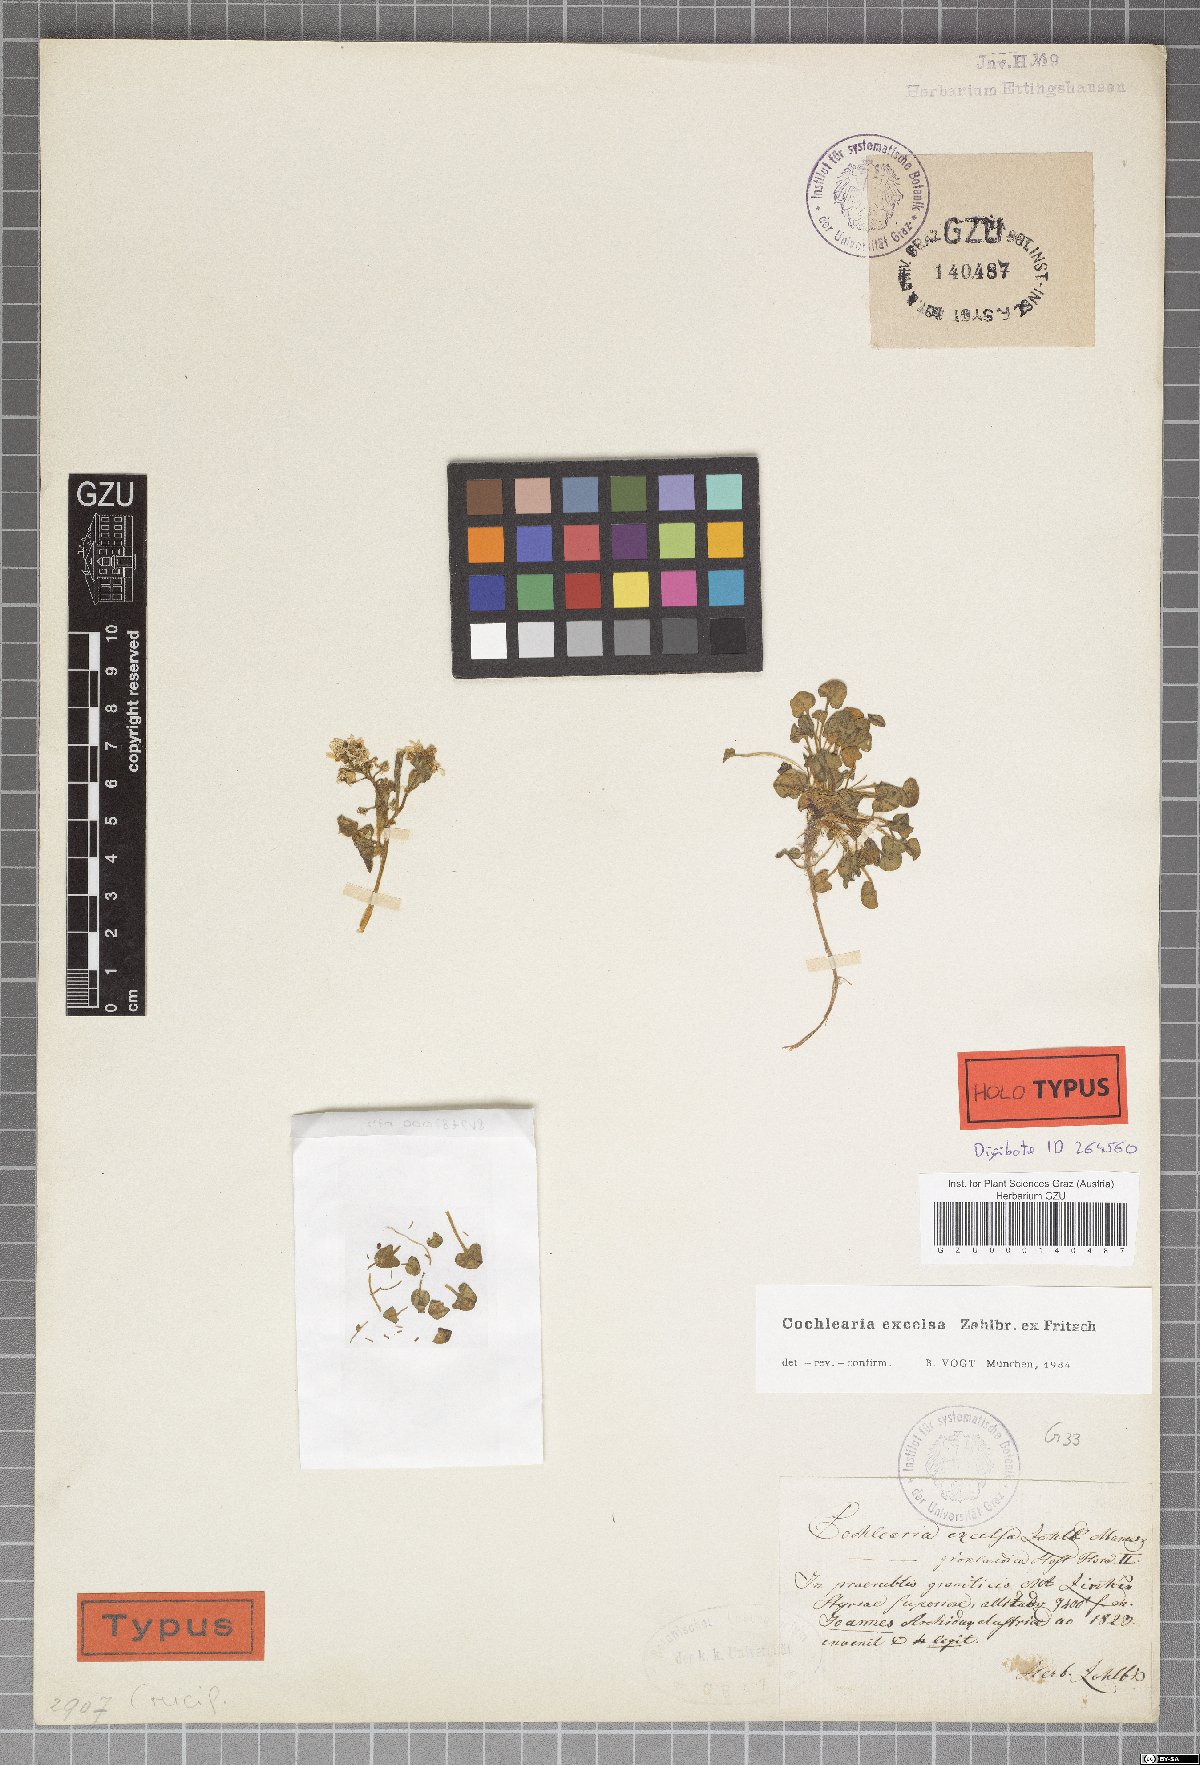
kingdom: Plantae
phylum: Tracheophyta
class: Magnoliopsida
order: Brassicales
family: Brassicaceae
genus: Cochlearia
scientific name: Cochlearia pyrenaica
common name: Upland scurvy-grass
